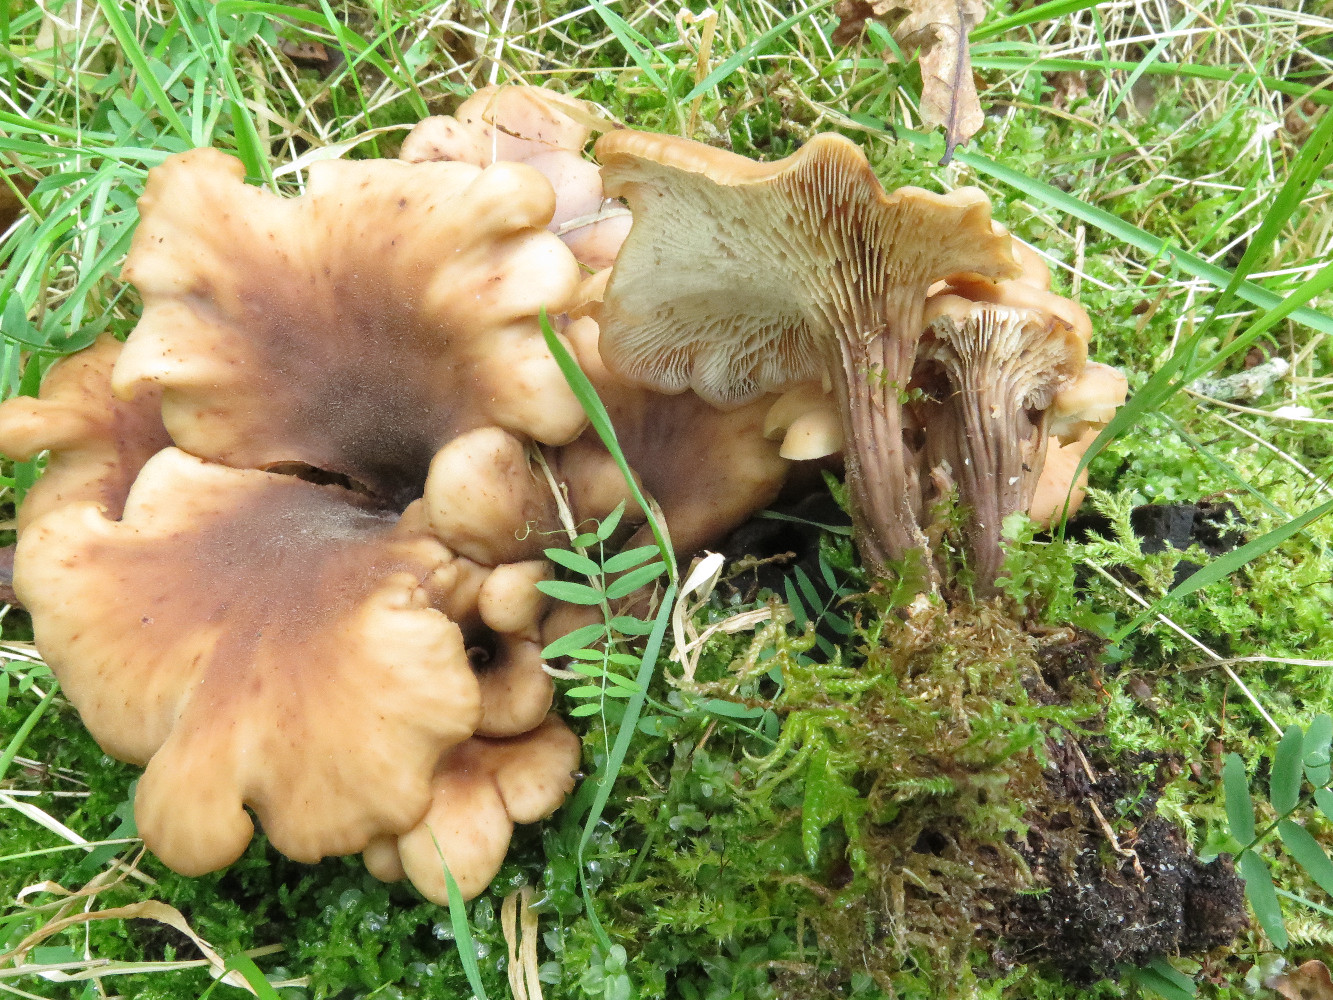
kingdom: Fungi
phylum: Basidiomycota
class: Agaricomycetes
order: Russulales
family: Auriscalpiaceae
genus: Lentinellus
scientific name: Lentinellus cochleatus
